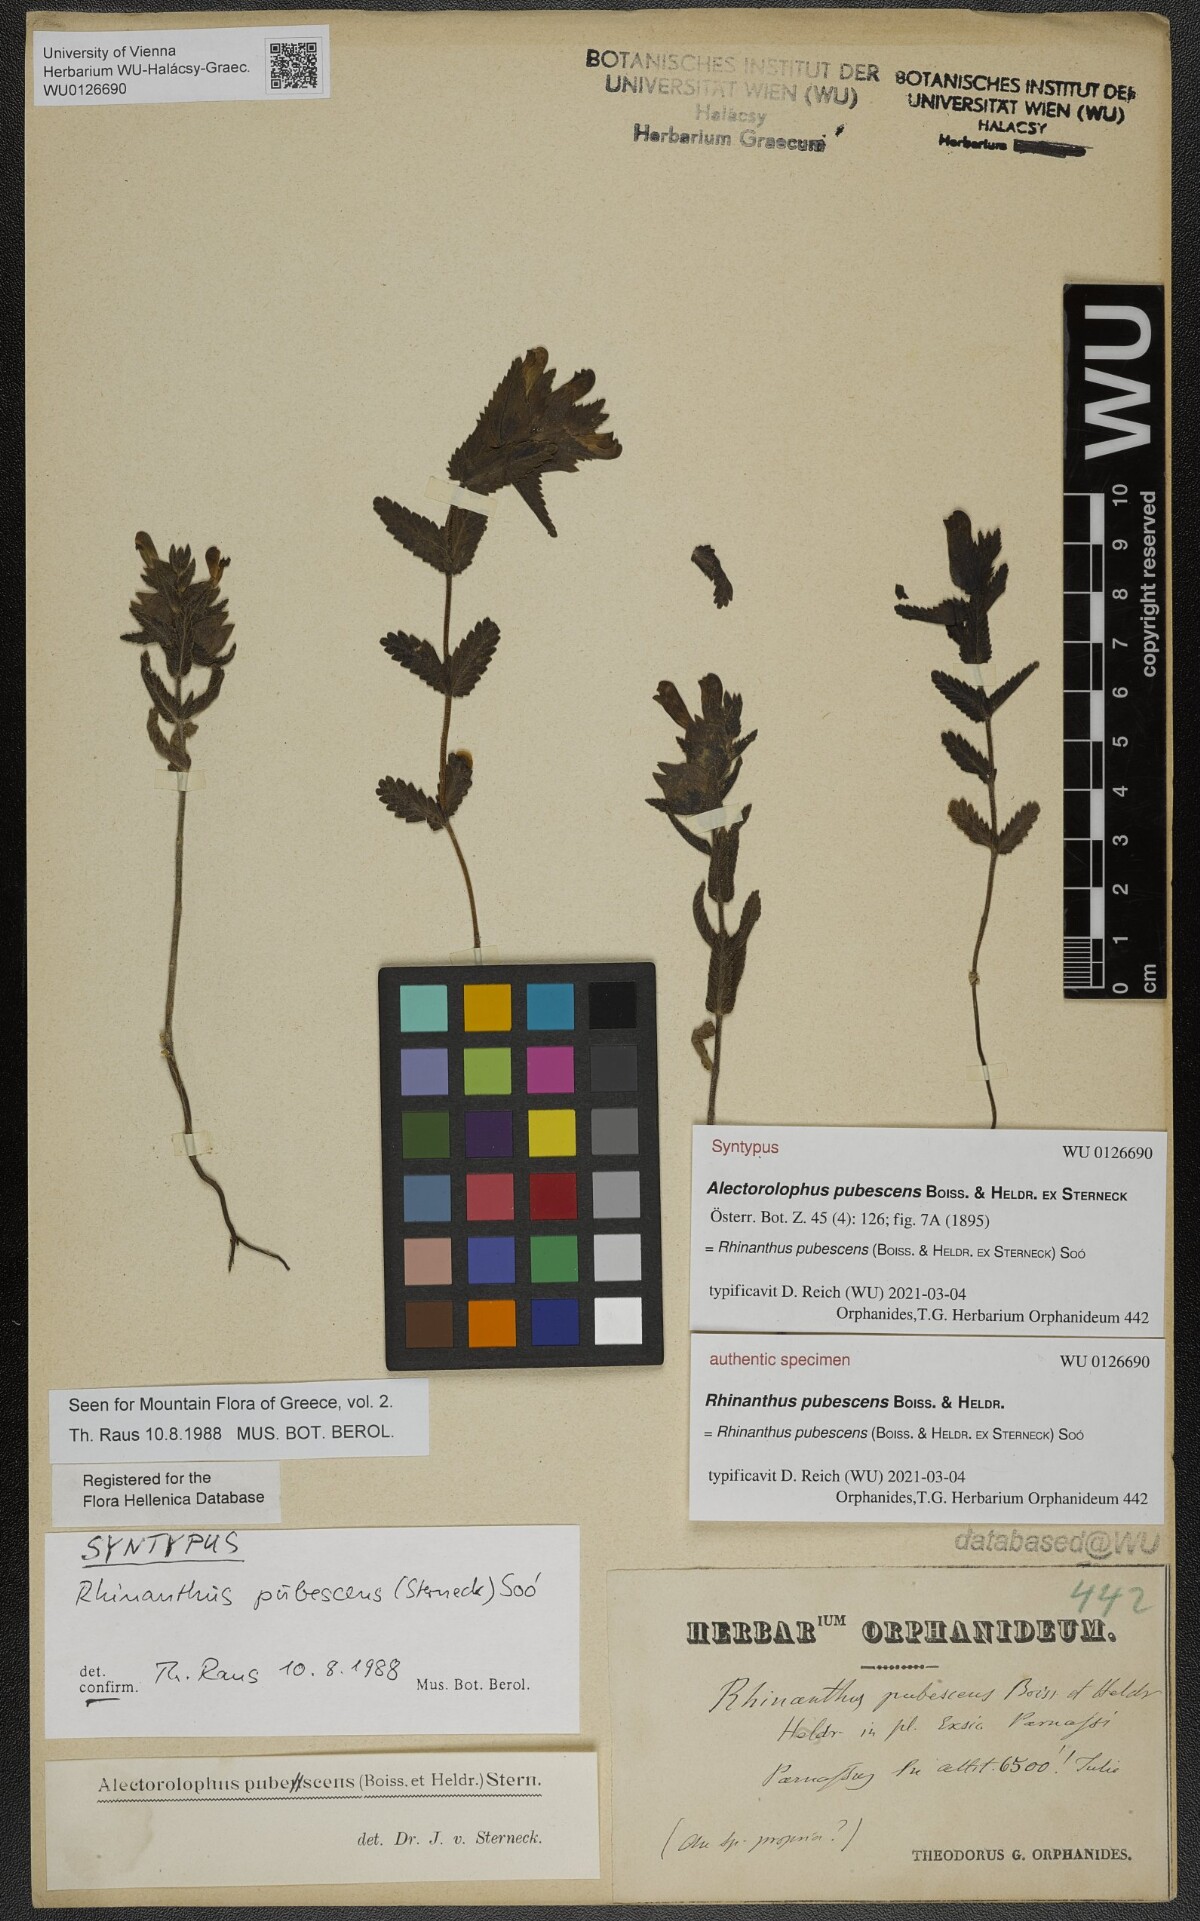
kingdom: Plantae
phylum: Tracheophyta
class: Magnoliopsida
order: Lamiales
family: Orobanchaceae
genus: Rhinanthus
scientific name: Rhinanthus pubescens
